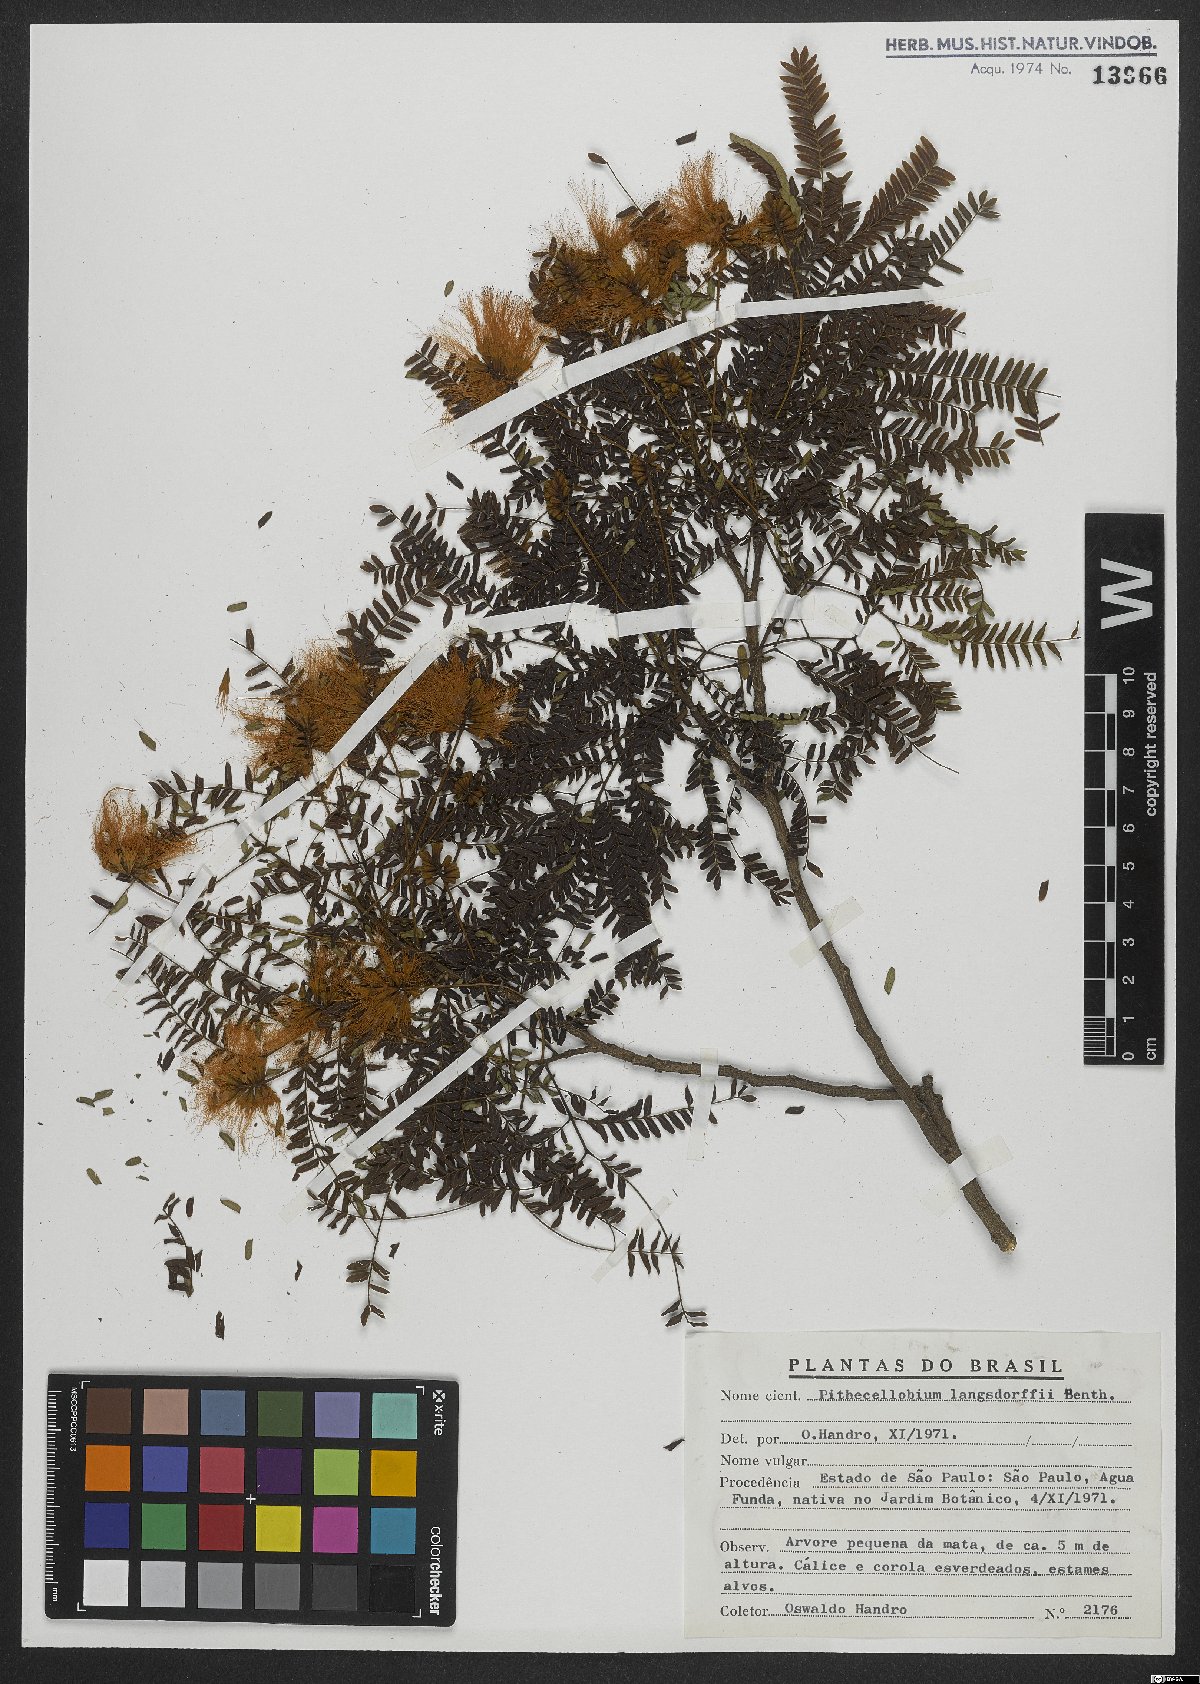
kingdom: Plantae
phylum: Tracheophyta
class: Magnoliopsida
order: Fabales
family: Fabaceae
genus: Jupunba
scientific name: Jupunba langsdorffii
